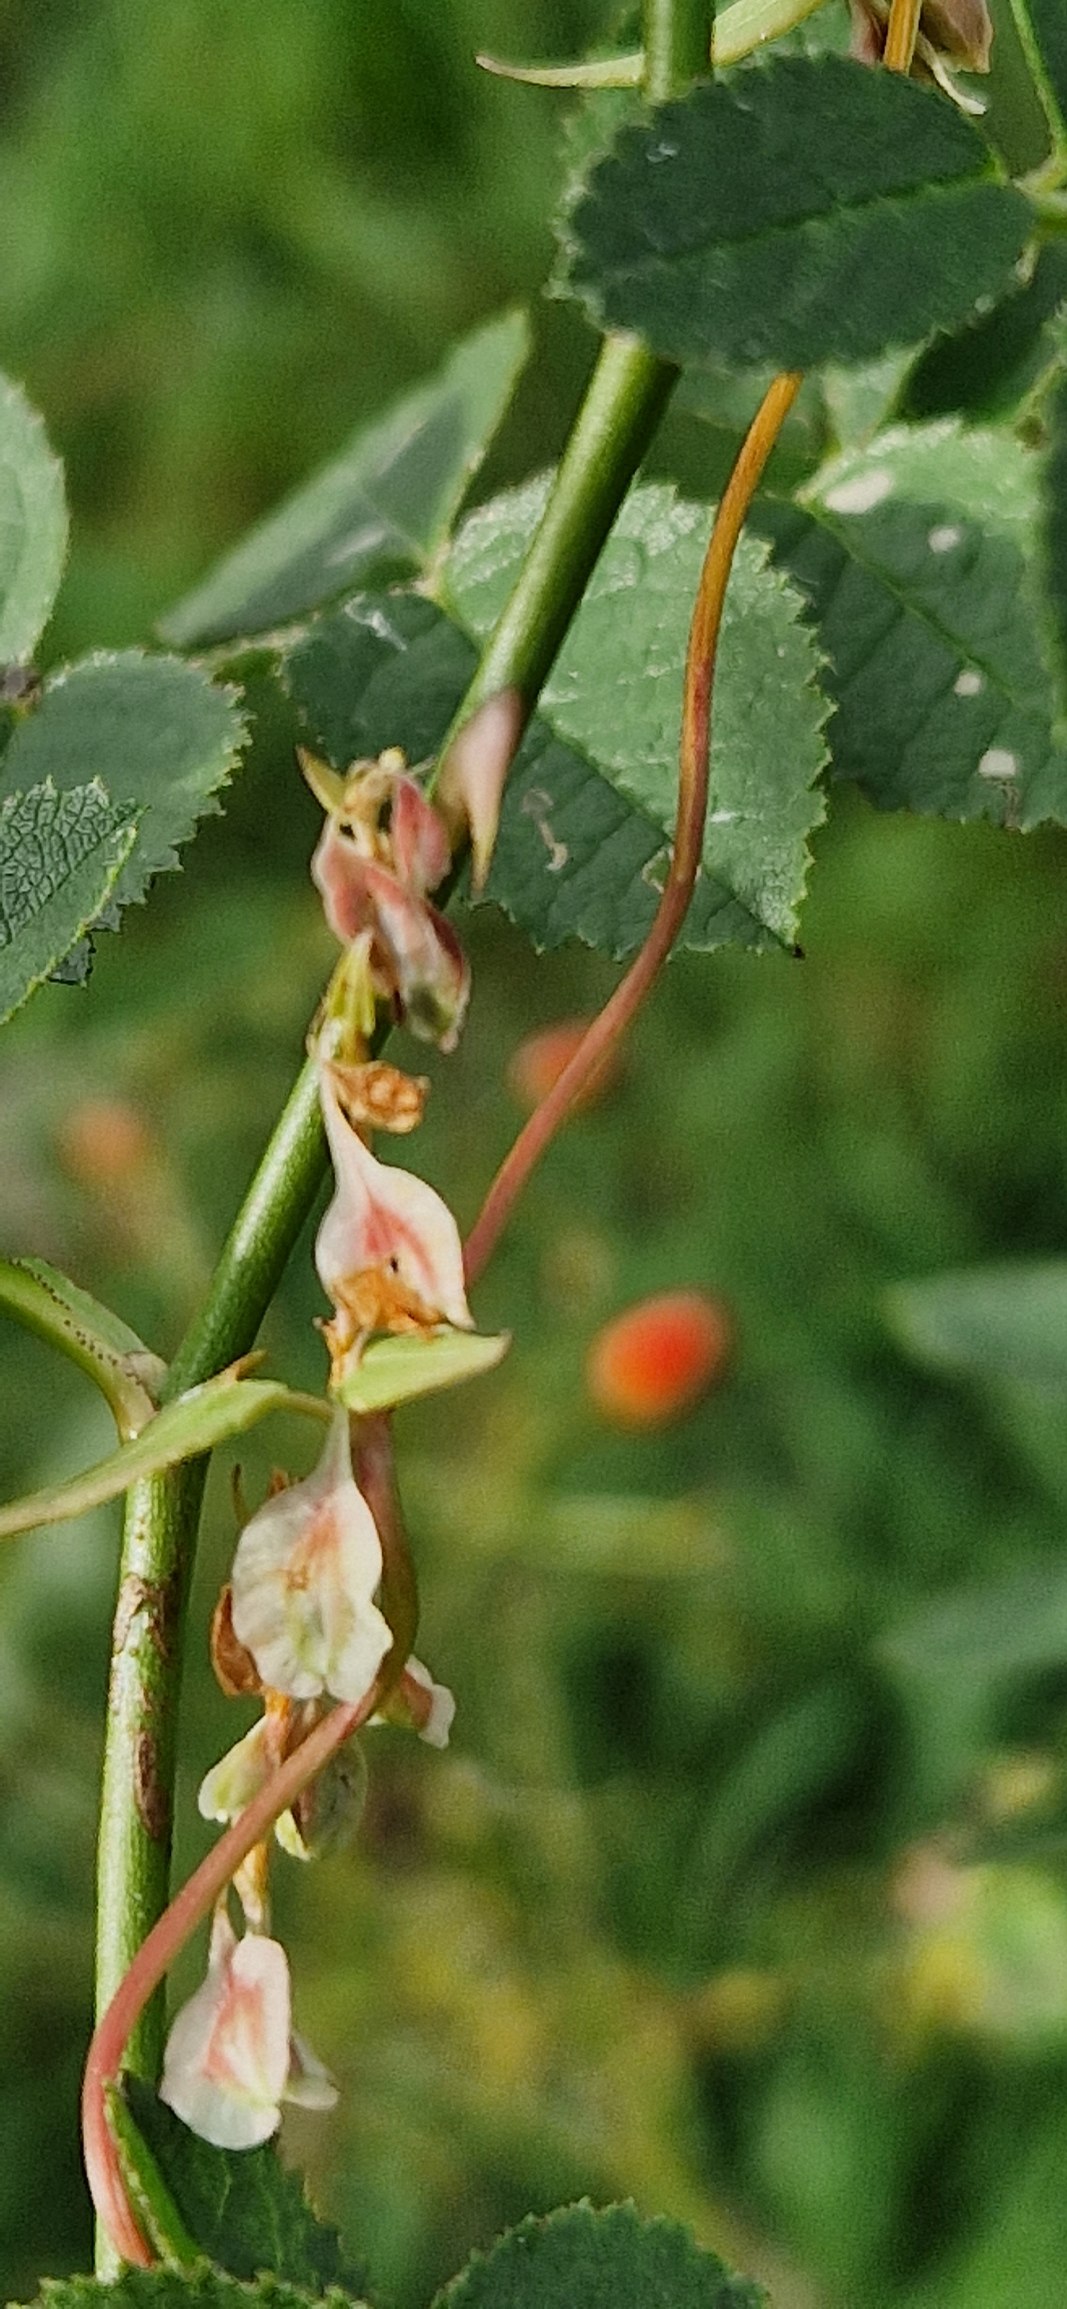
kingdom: Plantae
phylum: Tracheophyta
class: Magnoliopsida
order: Caryophyllales
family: Polygonaceae
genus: Fallopia
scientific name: Fallopia dumetorum
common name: Vinge-pileurt
